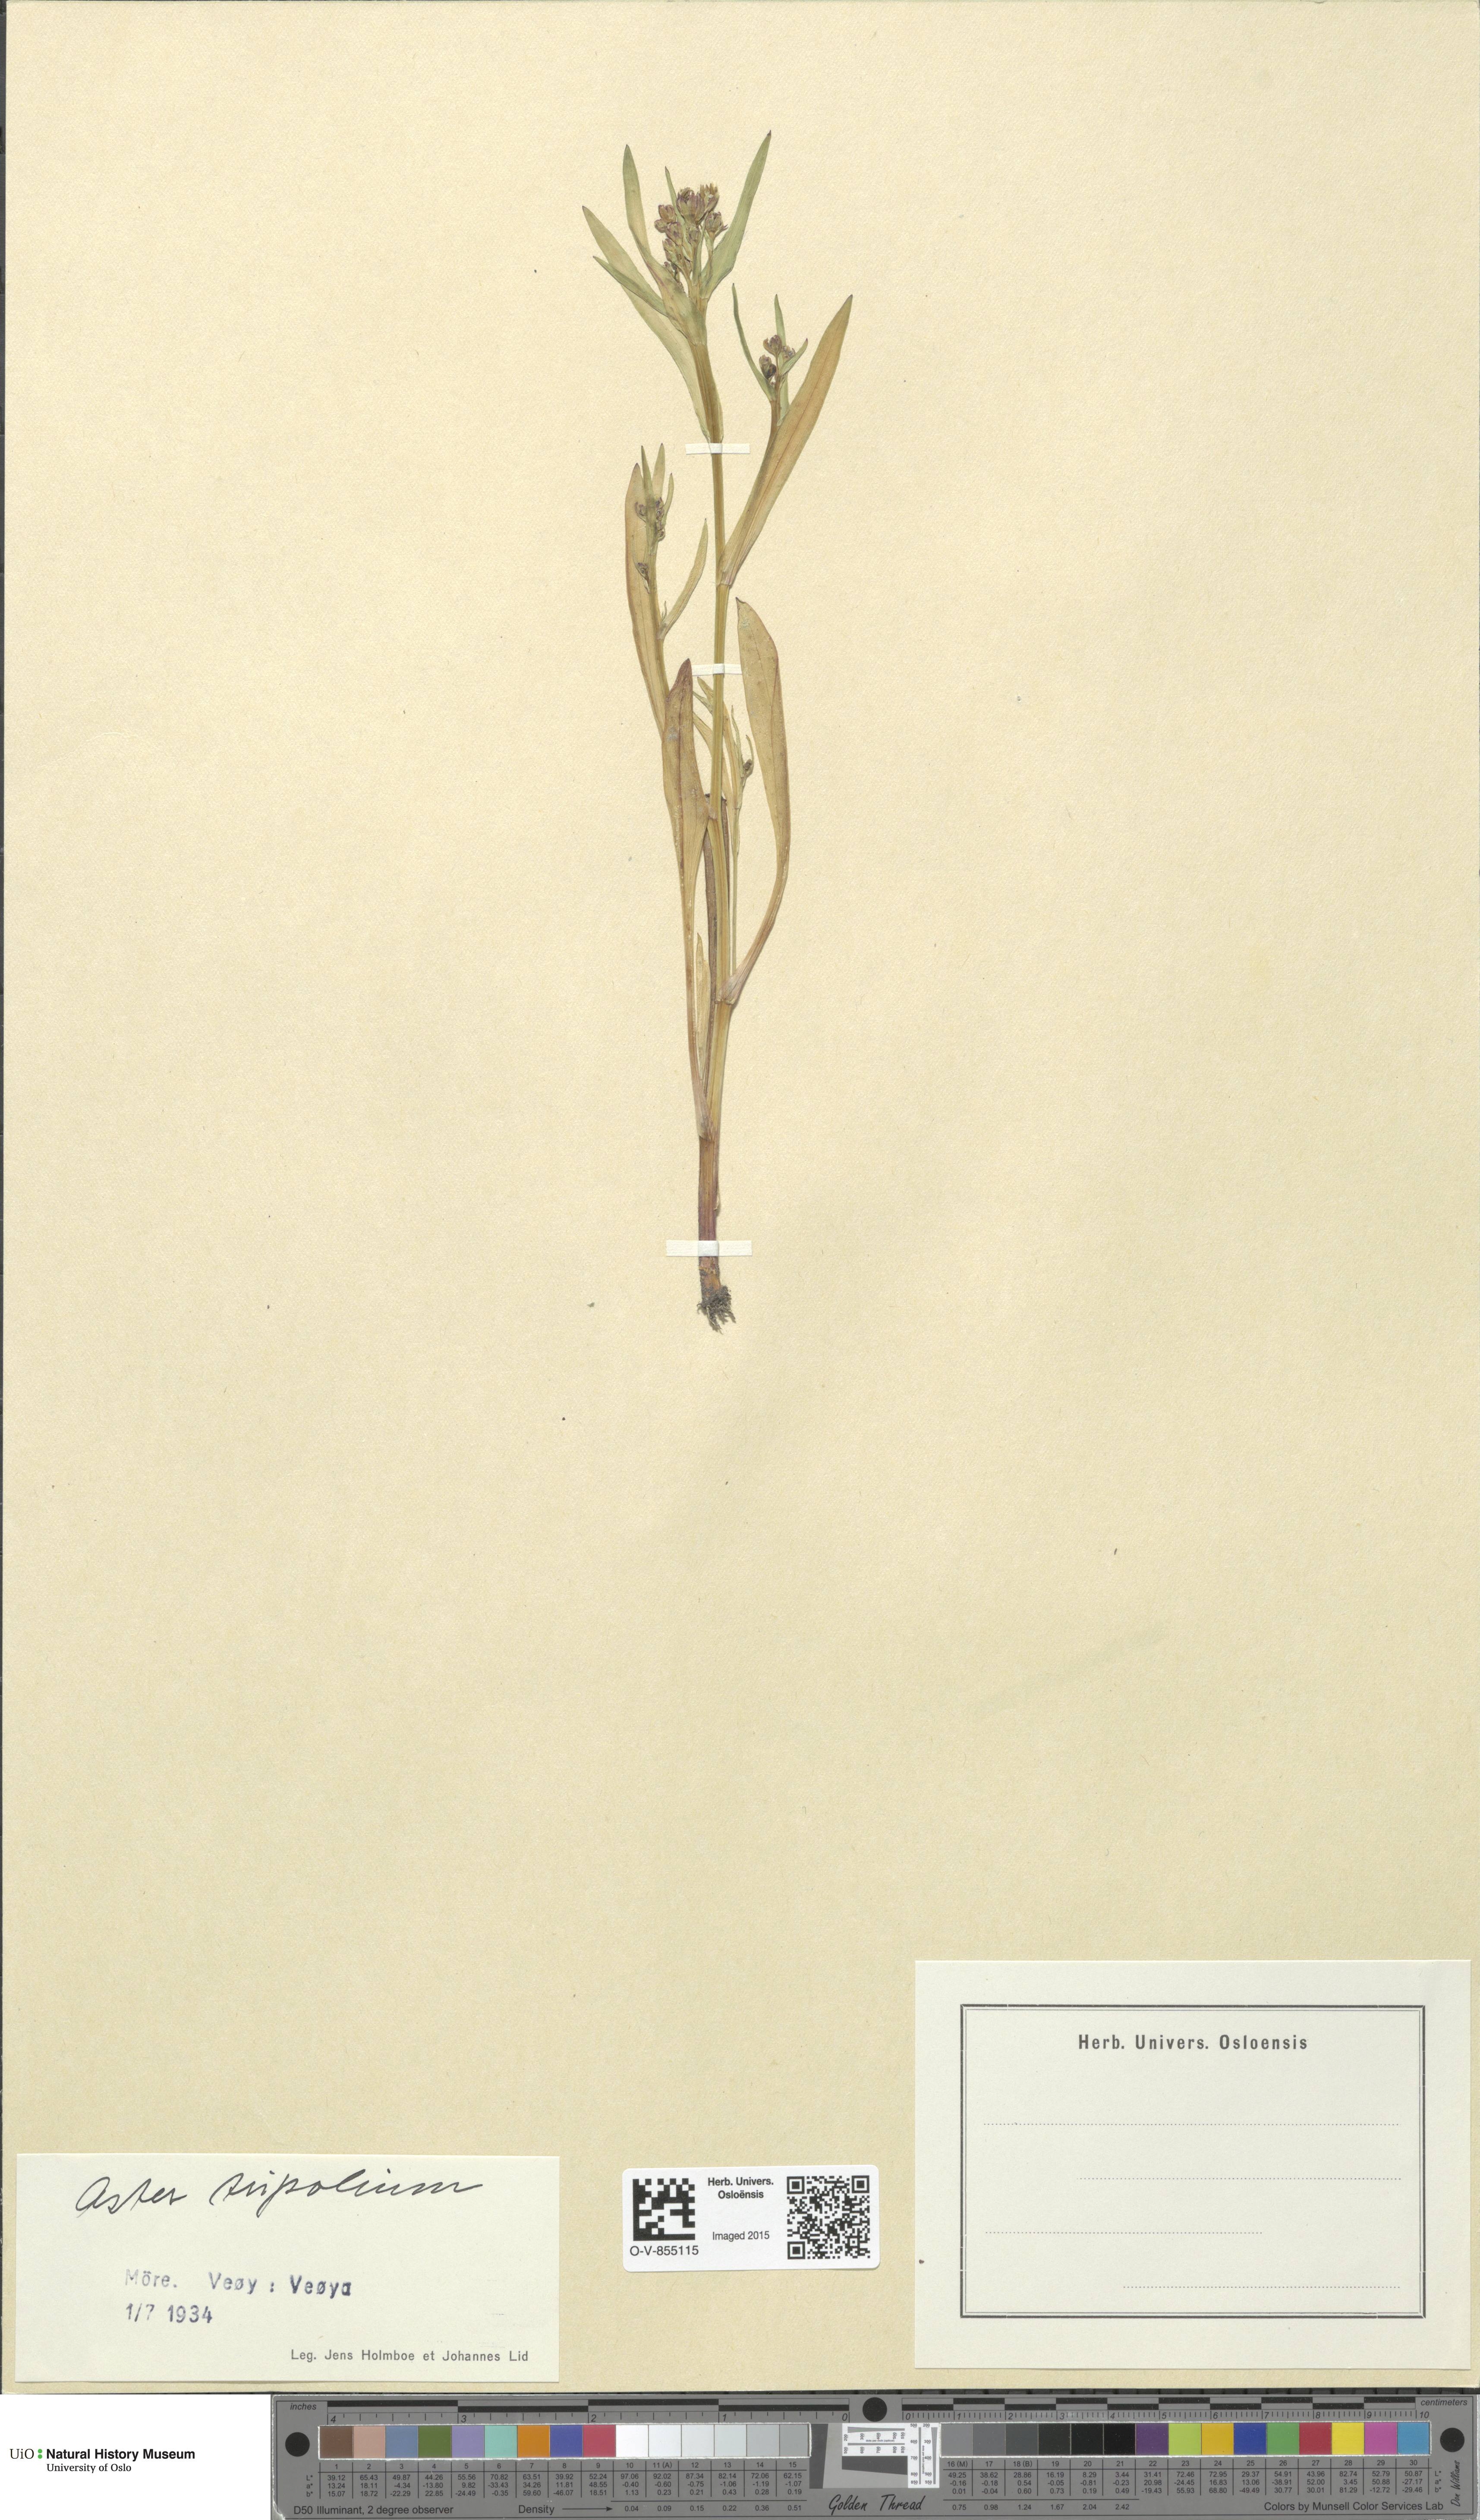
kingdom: Plantae
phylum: Tracheophyta
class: Magnoliopsida
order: Asterales
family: Asteraceae
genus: Tripolium
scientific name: Tripolium pannonicum
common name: Sea aster
